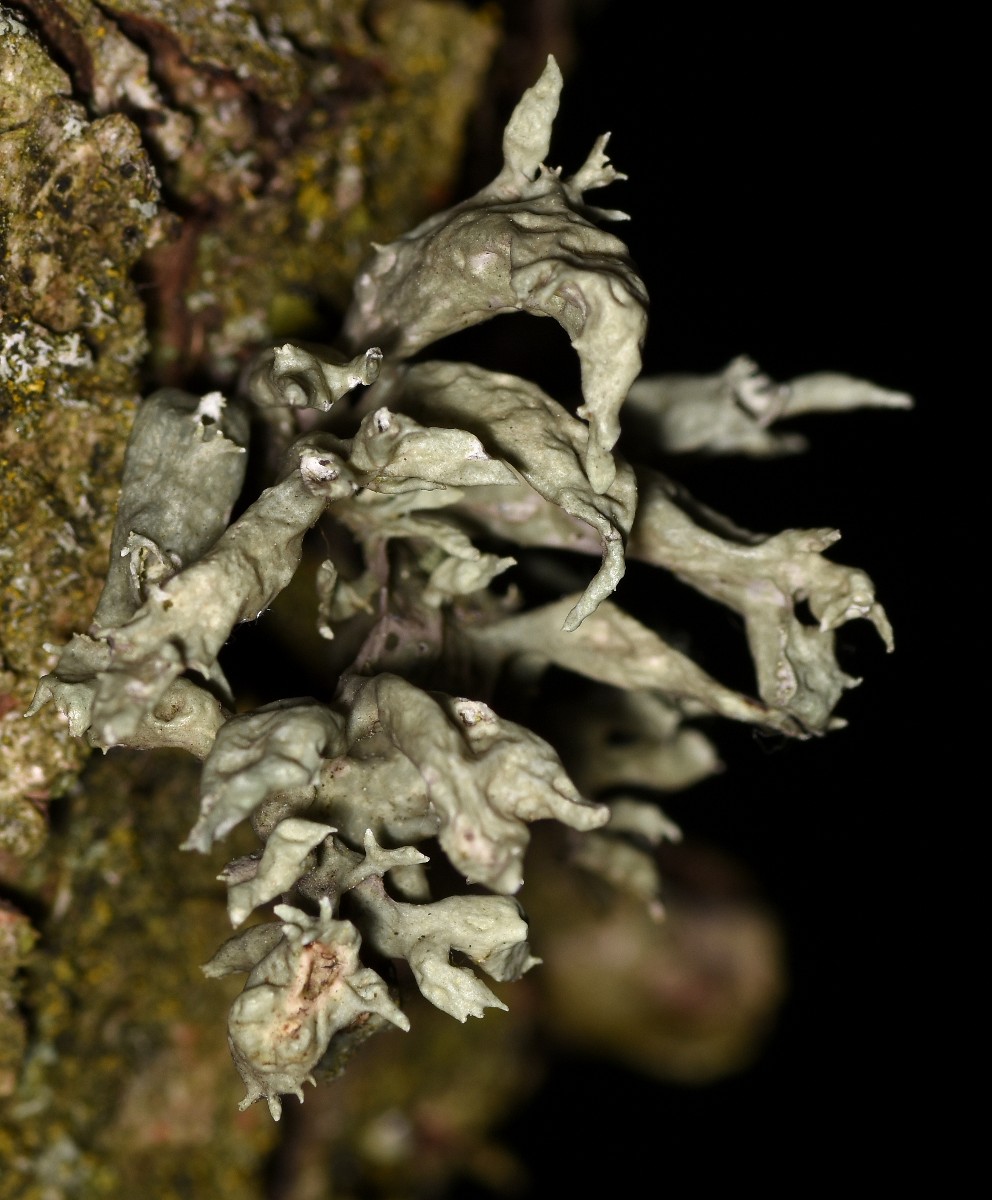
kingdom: Fungi
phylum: Ascomycota
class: Lecanoromycetes
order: Lecanorales
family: Ramalinaceae
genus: Ramalina
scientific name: Ramalina fastigiata
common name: tue-grenlav
